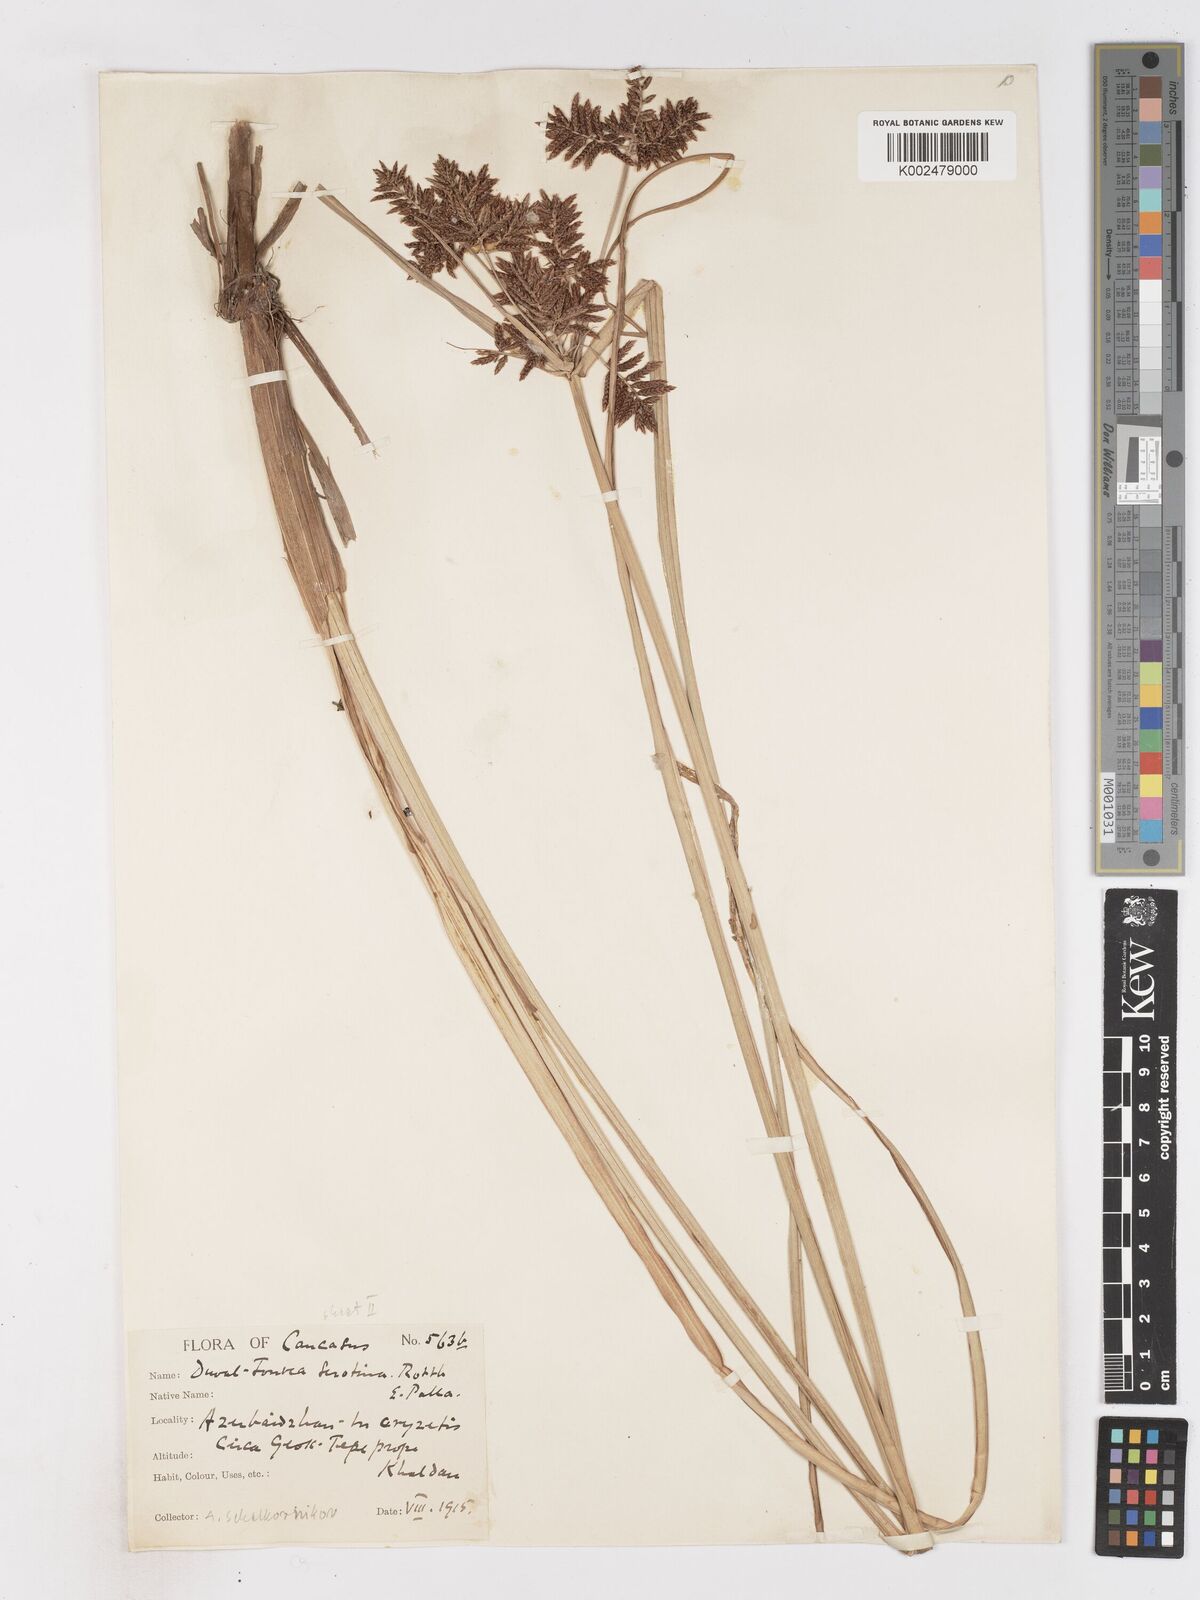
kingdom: Plantae
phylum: Tracheophyta
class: Liliopsida
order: Poales
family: Cyperaceae
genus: Cyperus
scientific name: Cyperus serotinus
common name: Tidalmarsh flatsedge
